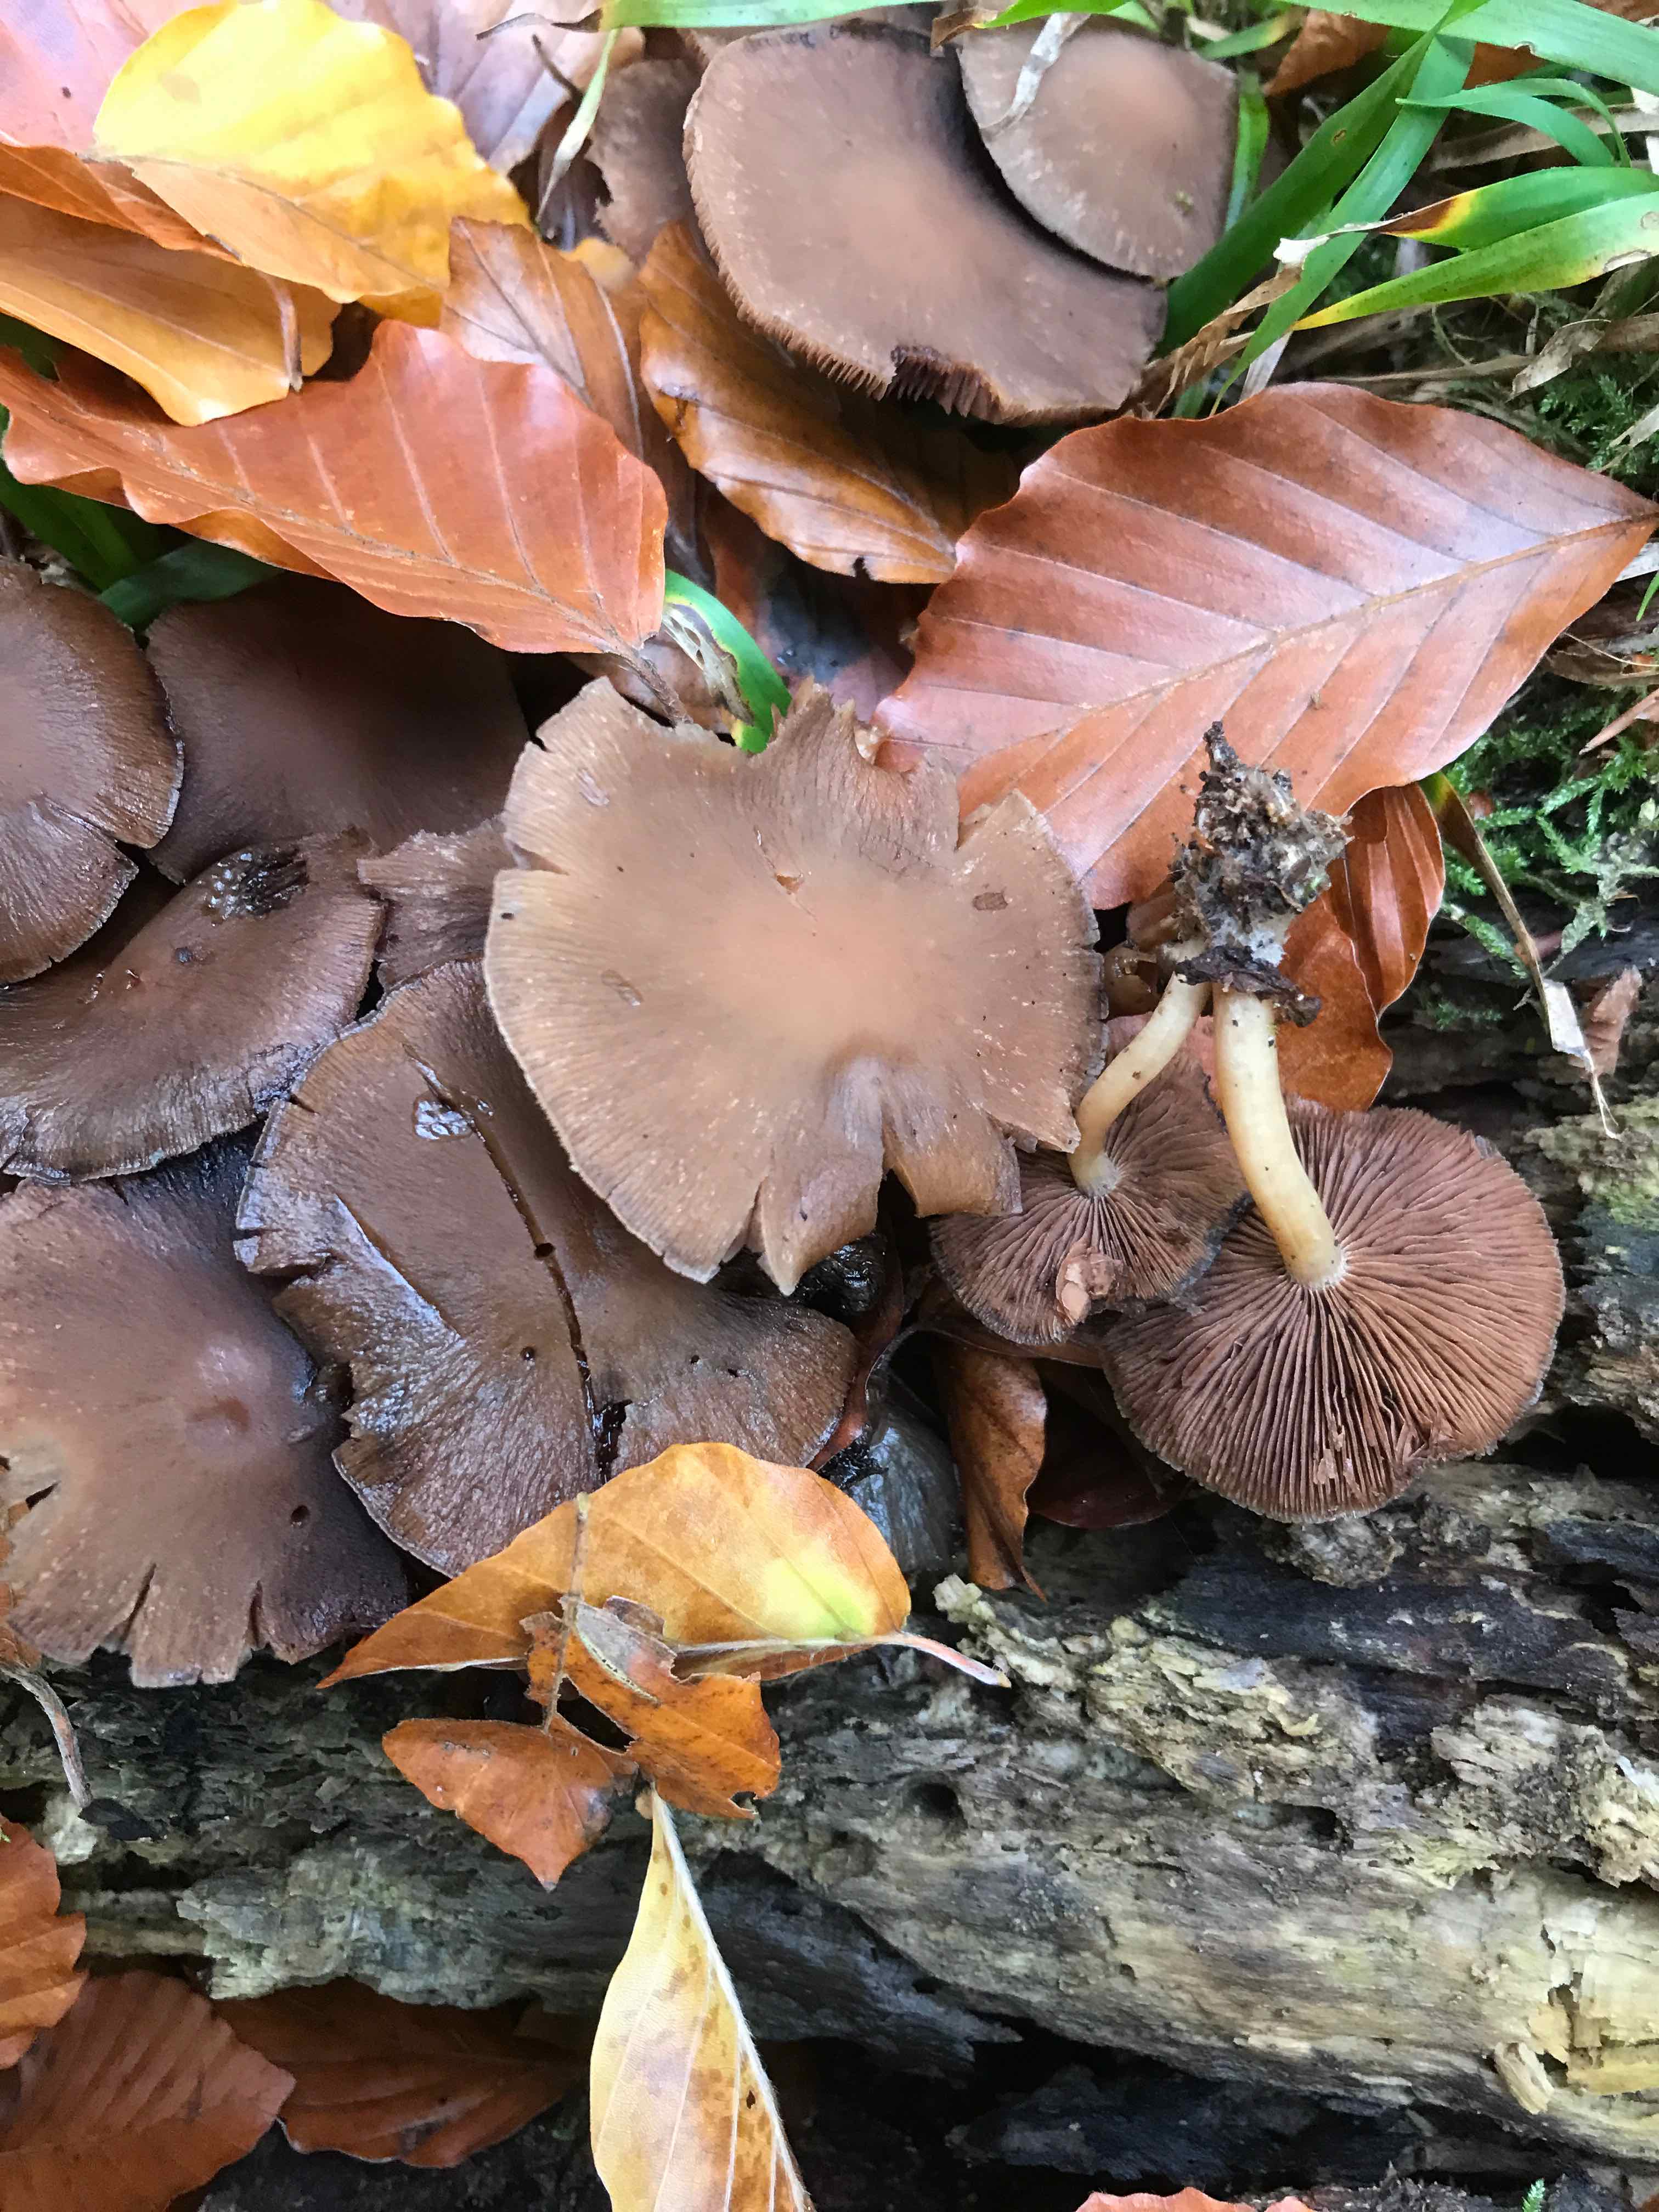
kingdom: Fungi
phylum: Basidiomycota
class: Agaricomycetes
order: Agaricales
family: Psathyrellaceae
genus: Psathyrella
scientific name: Psathyrella piluliformis
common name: lysstokket mørkhat
